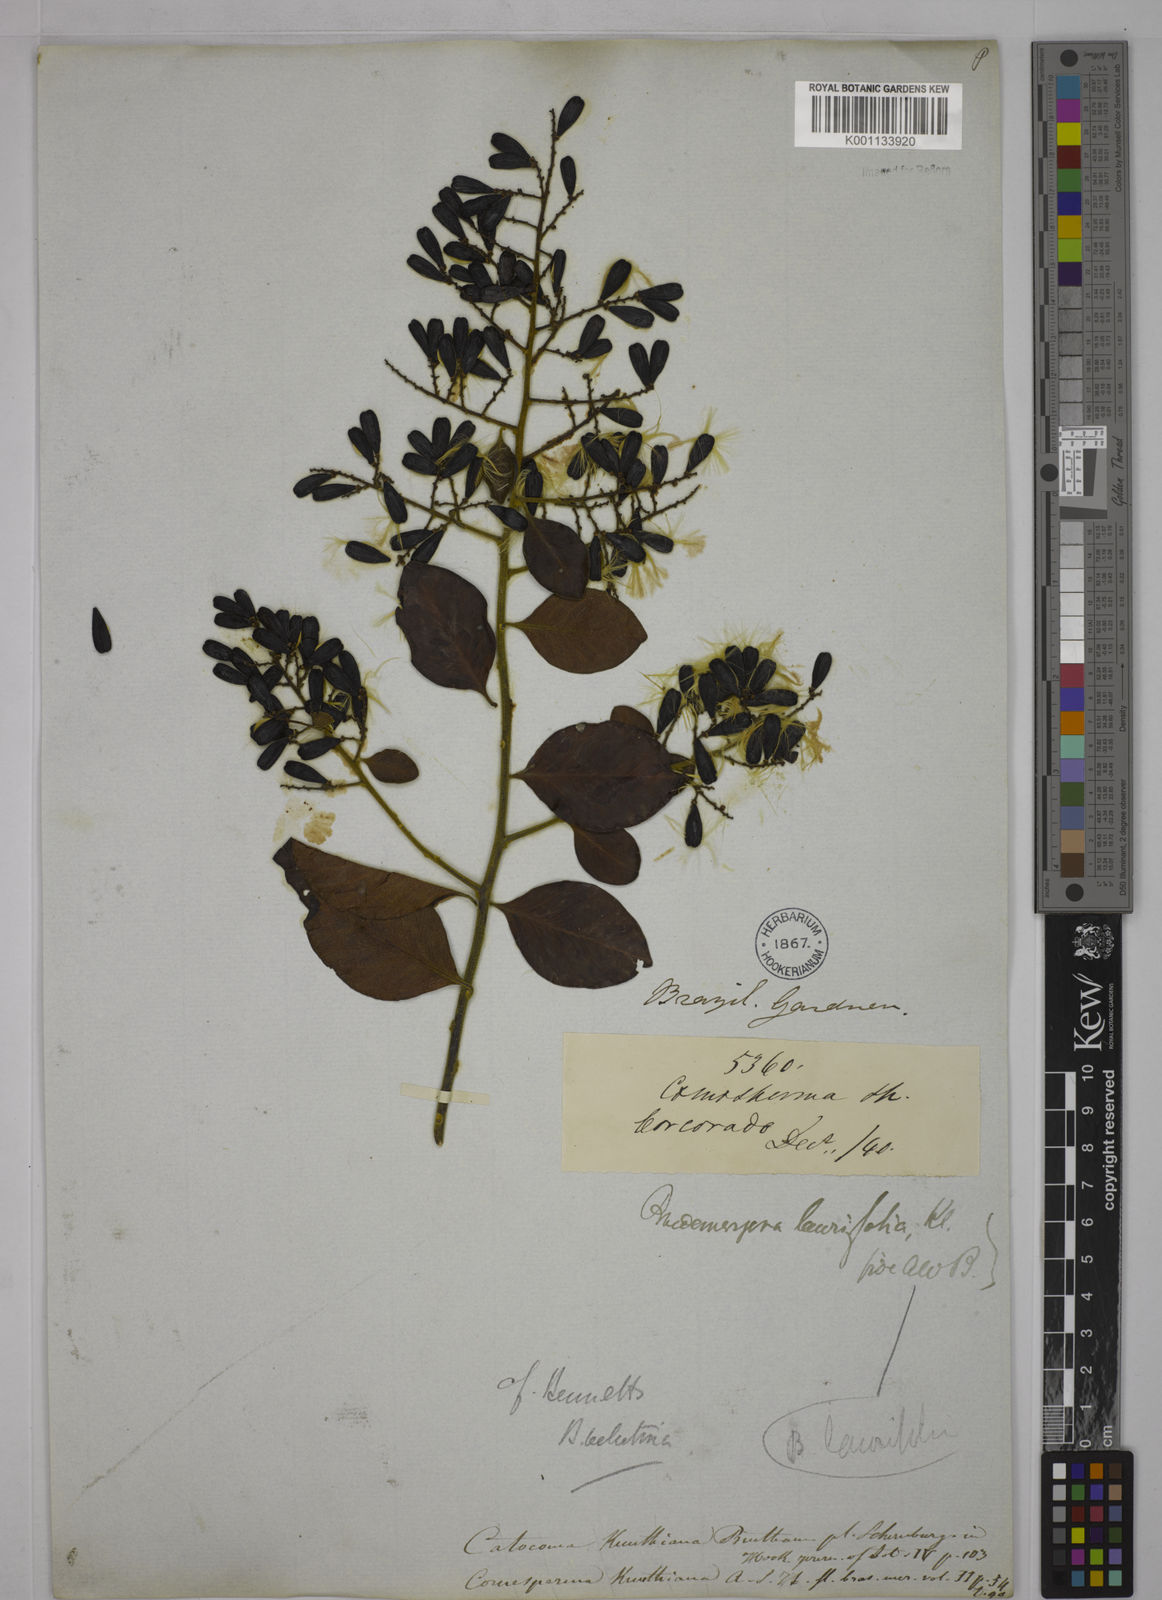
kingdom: Plantae
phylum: Tracheophyta
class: Magnoliopsida
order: Fabales
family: Polygalaceae
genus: Bredemeyera
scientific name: Bredemeyera hebeclada
